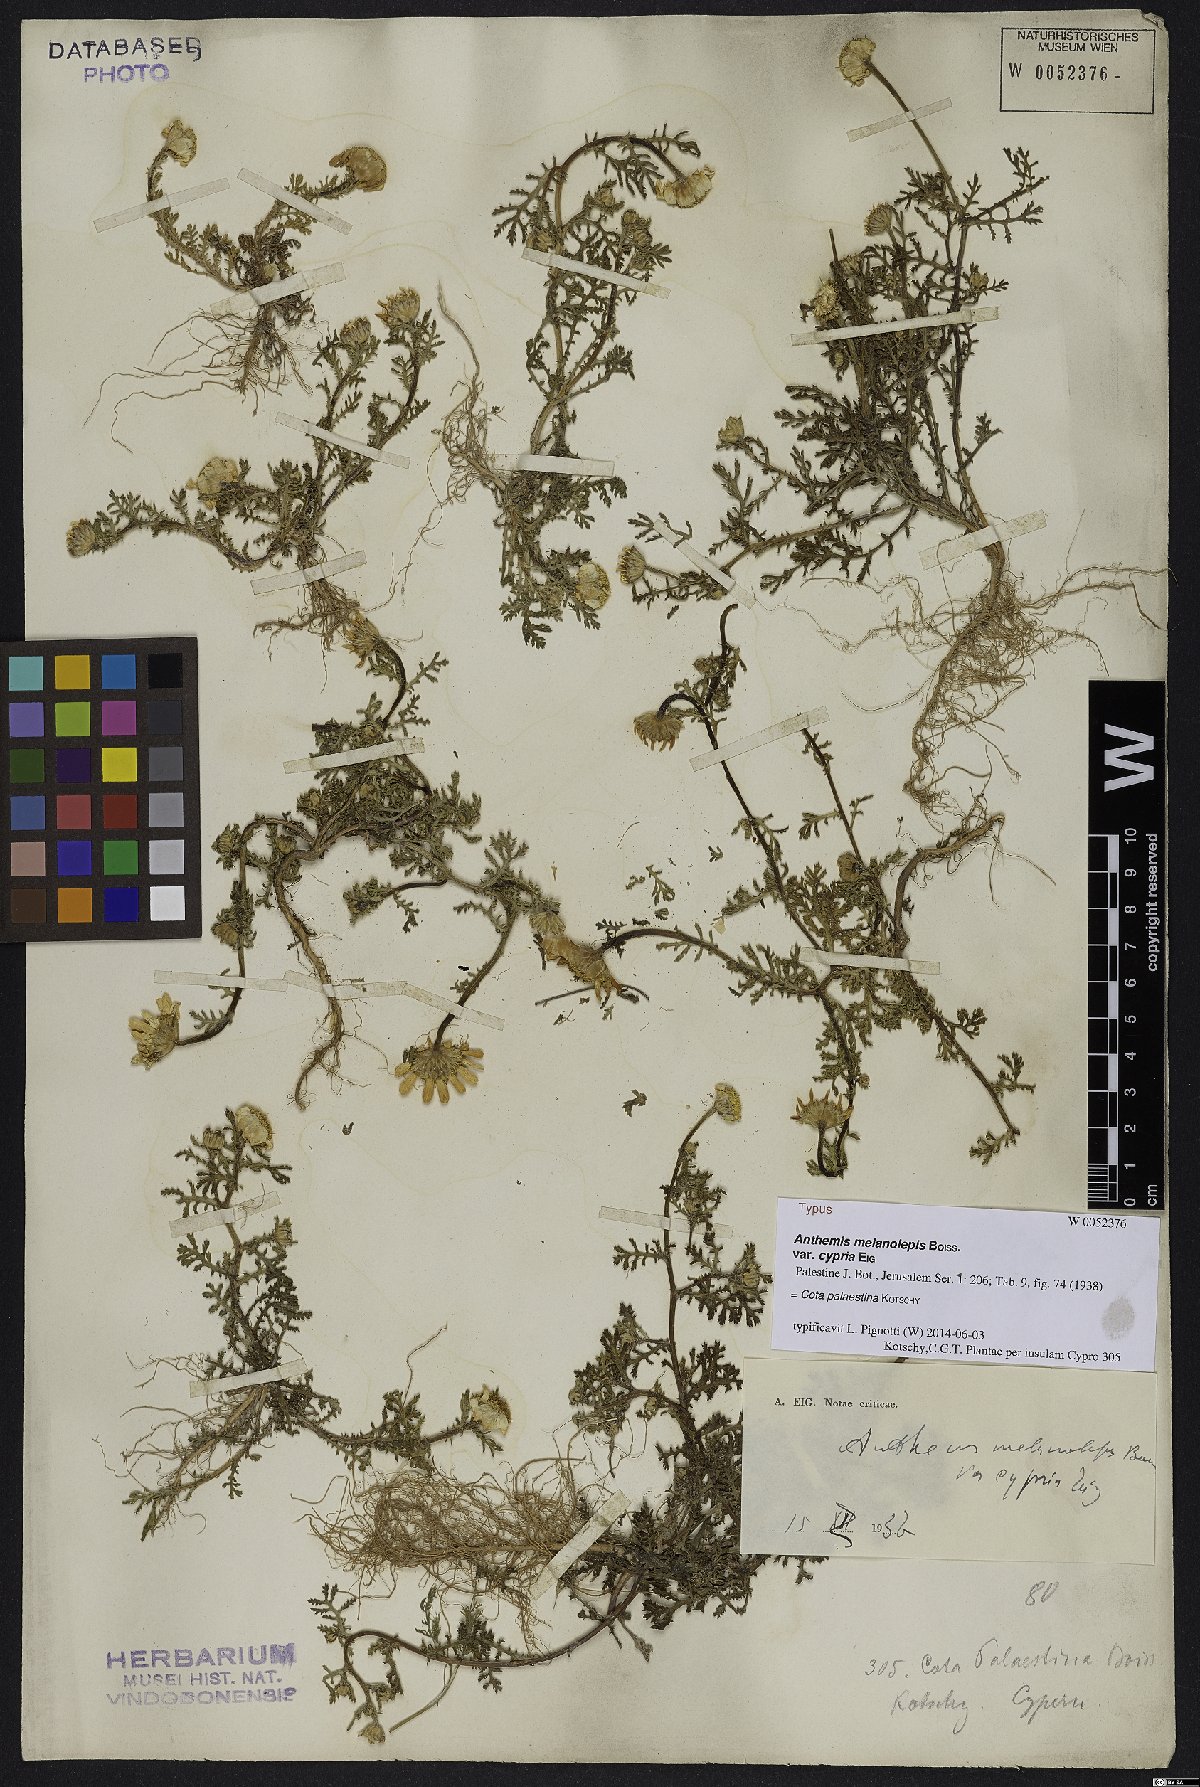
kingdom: Plantae
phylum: Tracheophyta
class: Magnoliopsida
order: Asterales
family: Asteraceae
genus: Cota
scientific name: Cota palaestina
